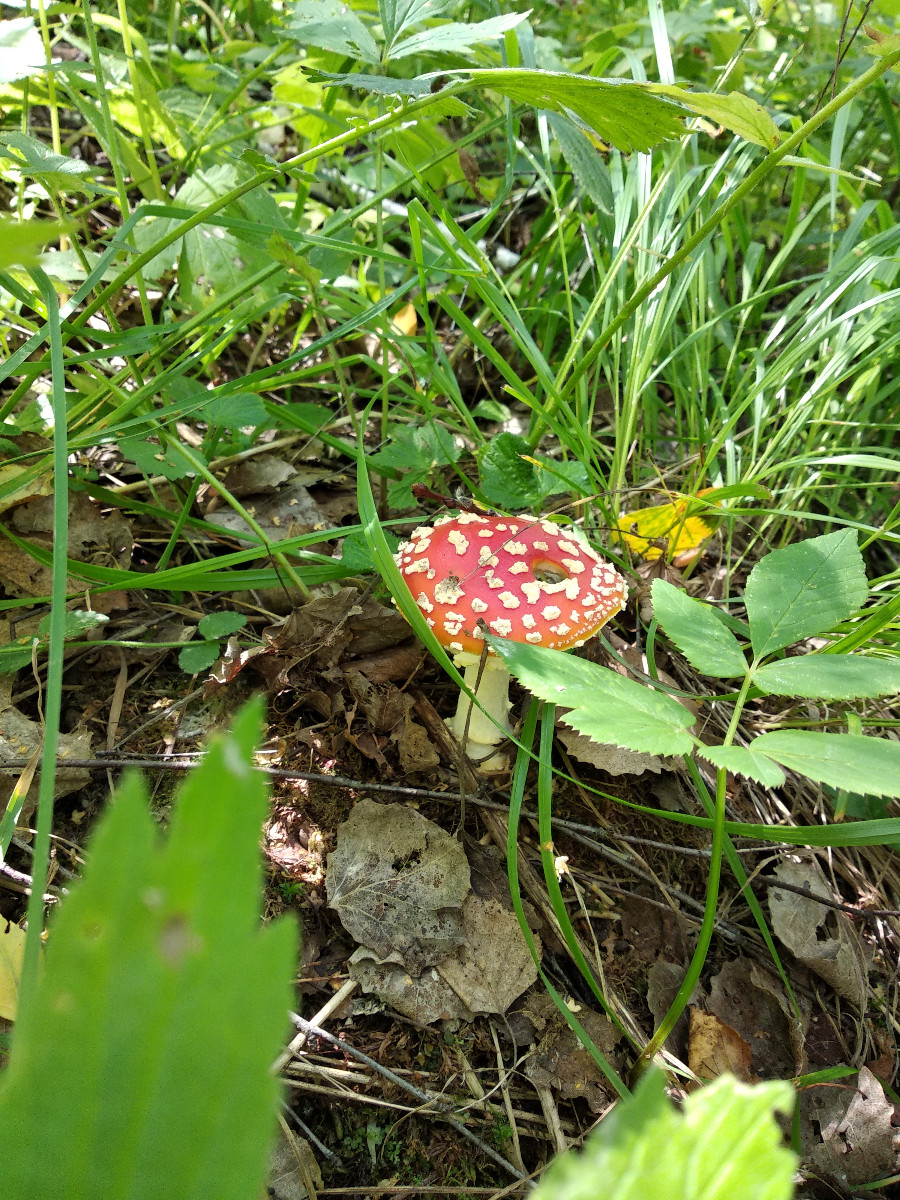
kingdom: Fungi
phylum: Basidiomycota
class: Agaricomycetes
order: Agaricales
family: Amanitaceae
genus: Amanita
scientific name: Amanita muscaria
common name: rød fluesvamp
